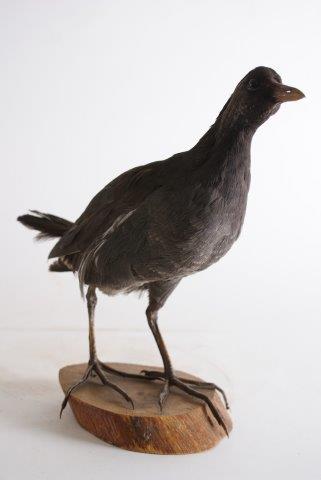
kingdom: Animalia
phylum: Chordata
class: Aves
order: Gruiformes
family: Rallidae
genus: Gallinula
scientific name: Gallinula chloropus
